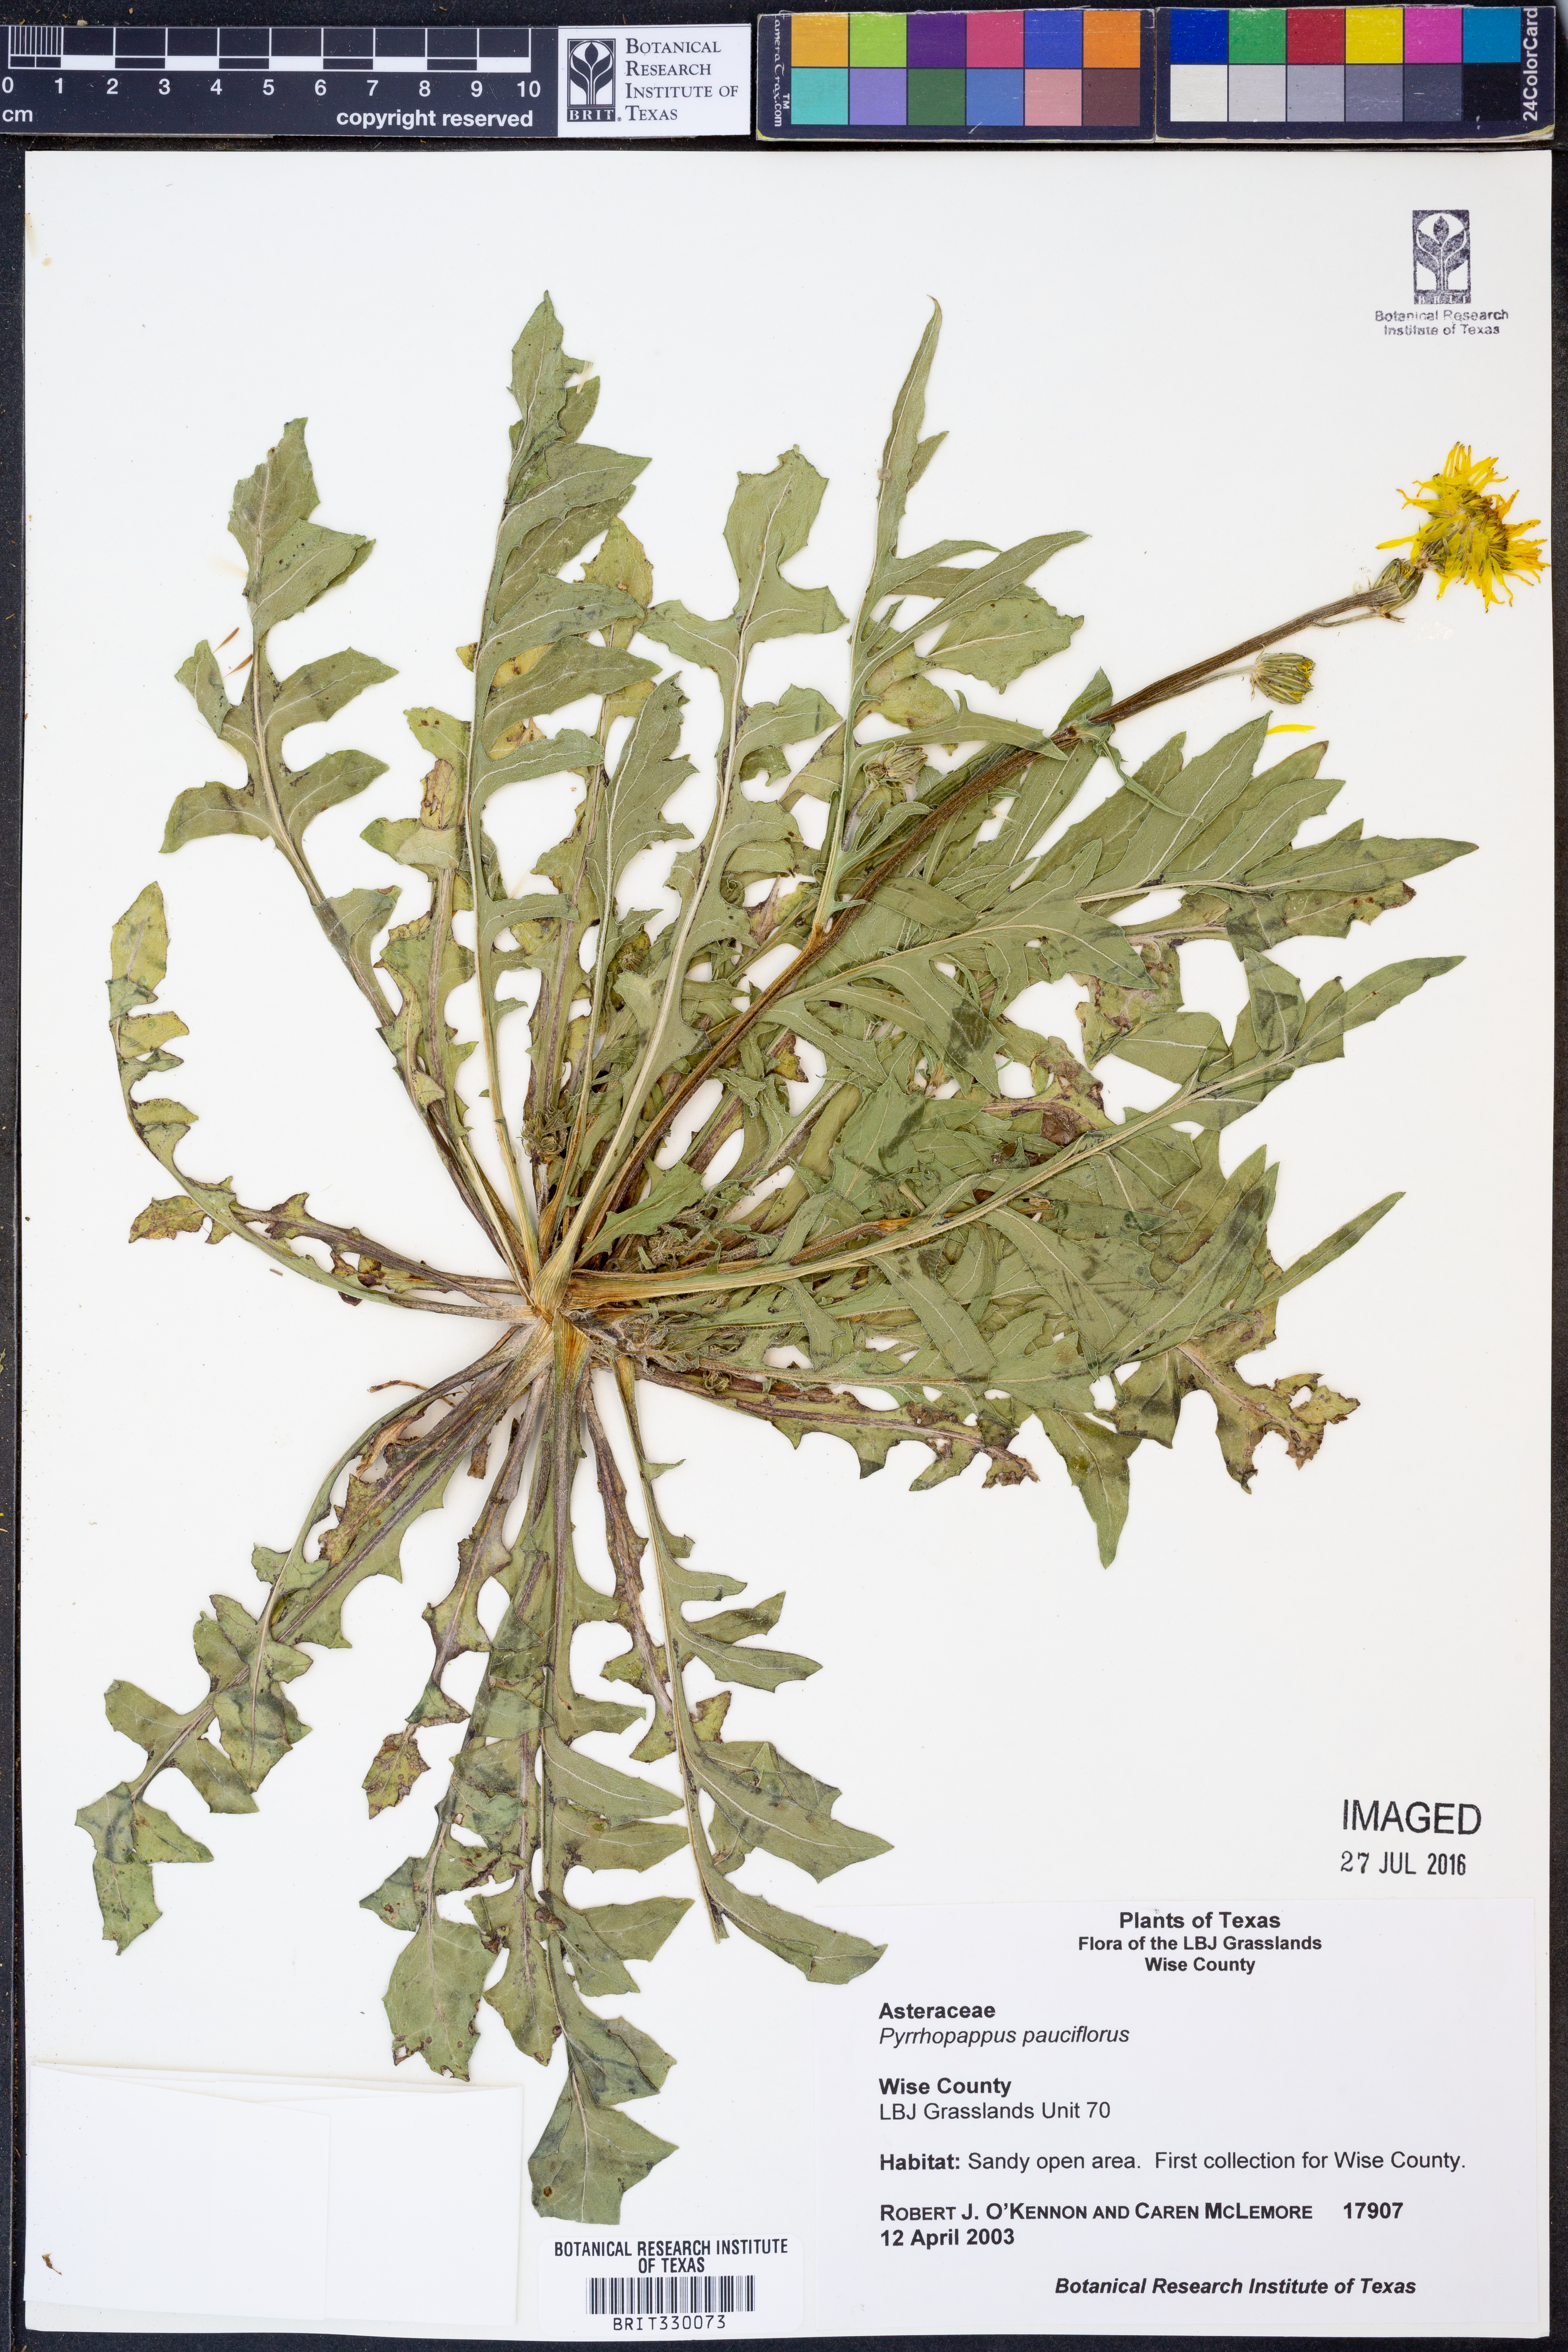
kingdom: Plantae
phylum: Tracheophyta
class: Magnoliopsida
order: Asterales
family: Asteraceae
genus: Pyrrhopappus
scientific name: Pyrrhopappus pauciflorus
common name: Texas false dandelion
